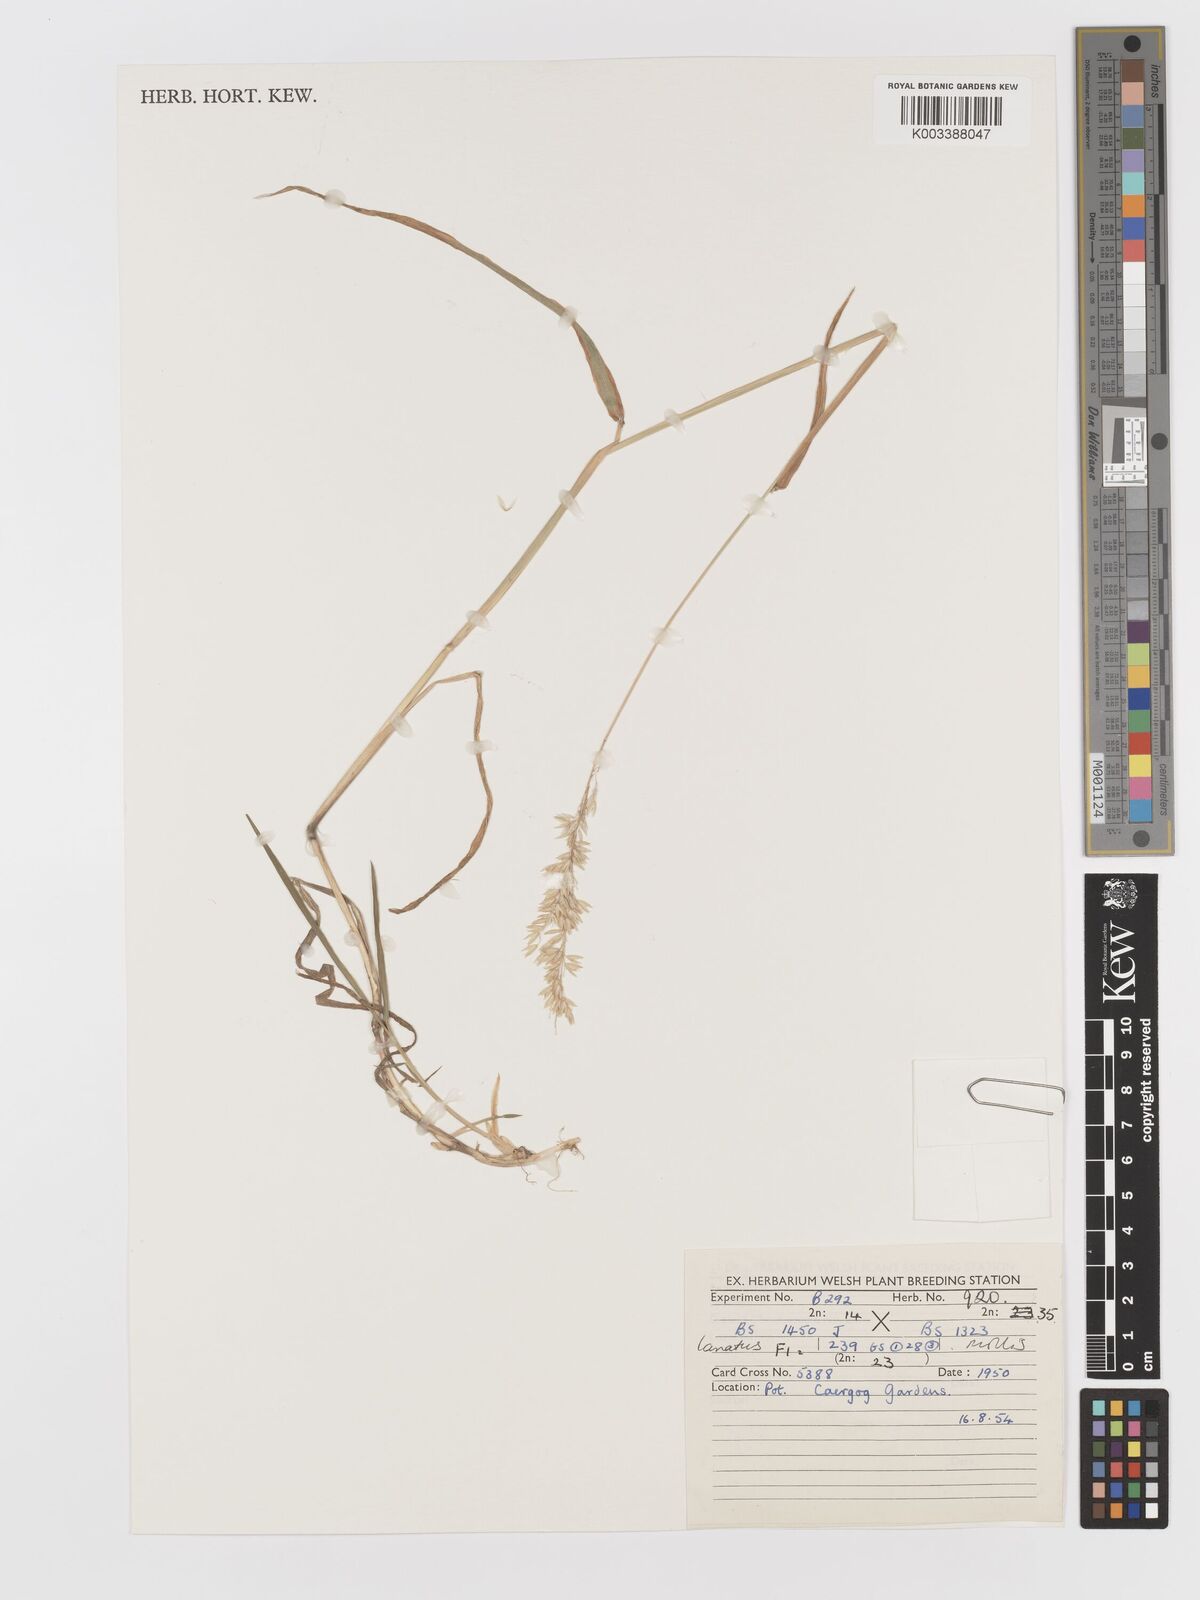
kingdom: Plantae
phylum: Tracheophyta
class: Liliopsida
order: Poales
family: Poaceae
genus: Holcus
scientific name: Holcus lanatus
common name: Yorkshire-fog
